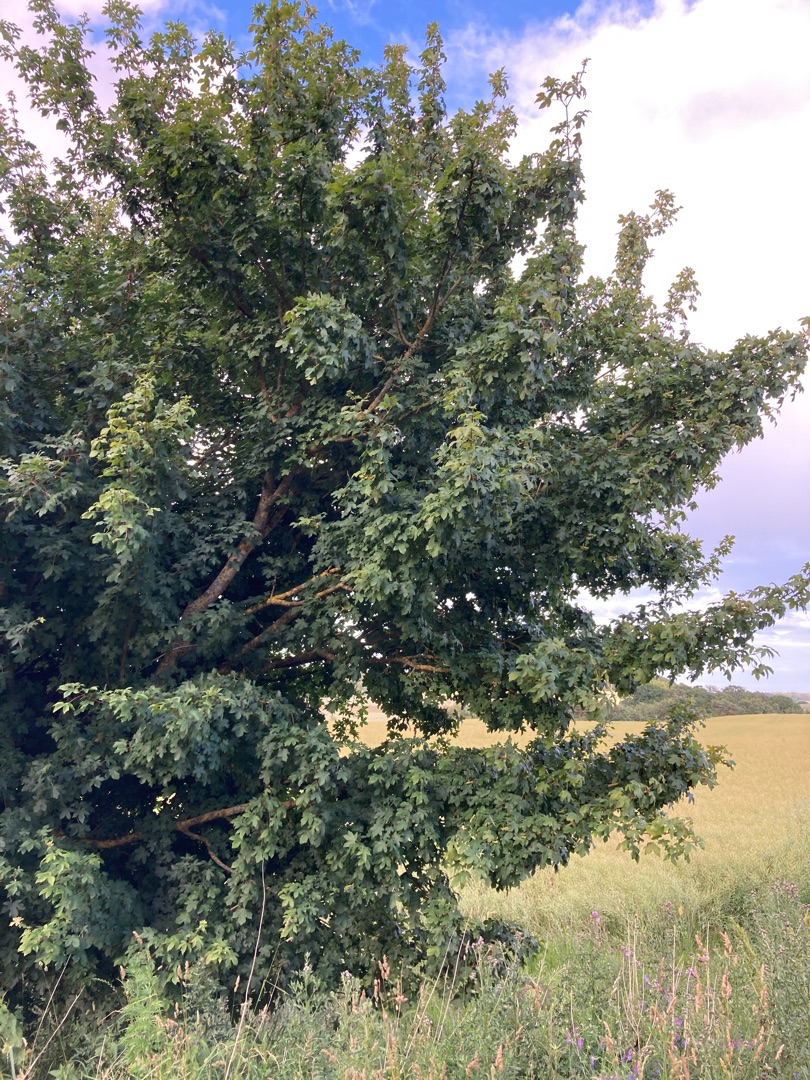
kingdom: Plantae
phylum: Tracheophyta
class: Magnoliopsida
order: Sapindales
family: Sapindaceae
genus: Acer
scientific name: Acer campestre
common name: Navr
